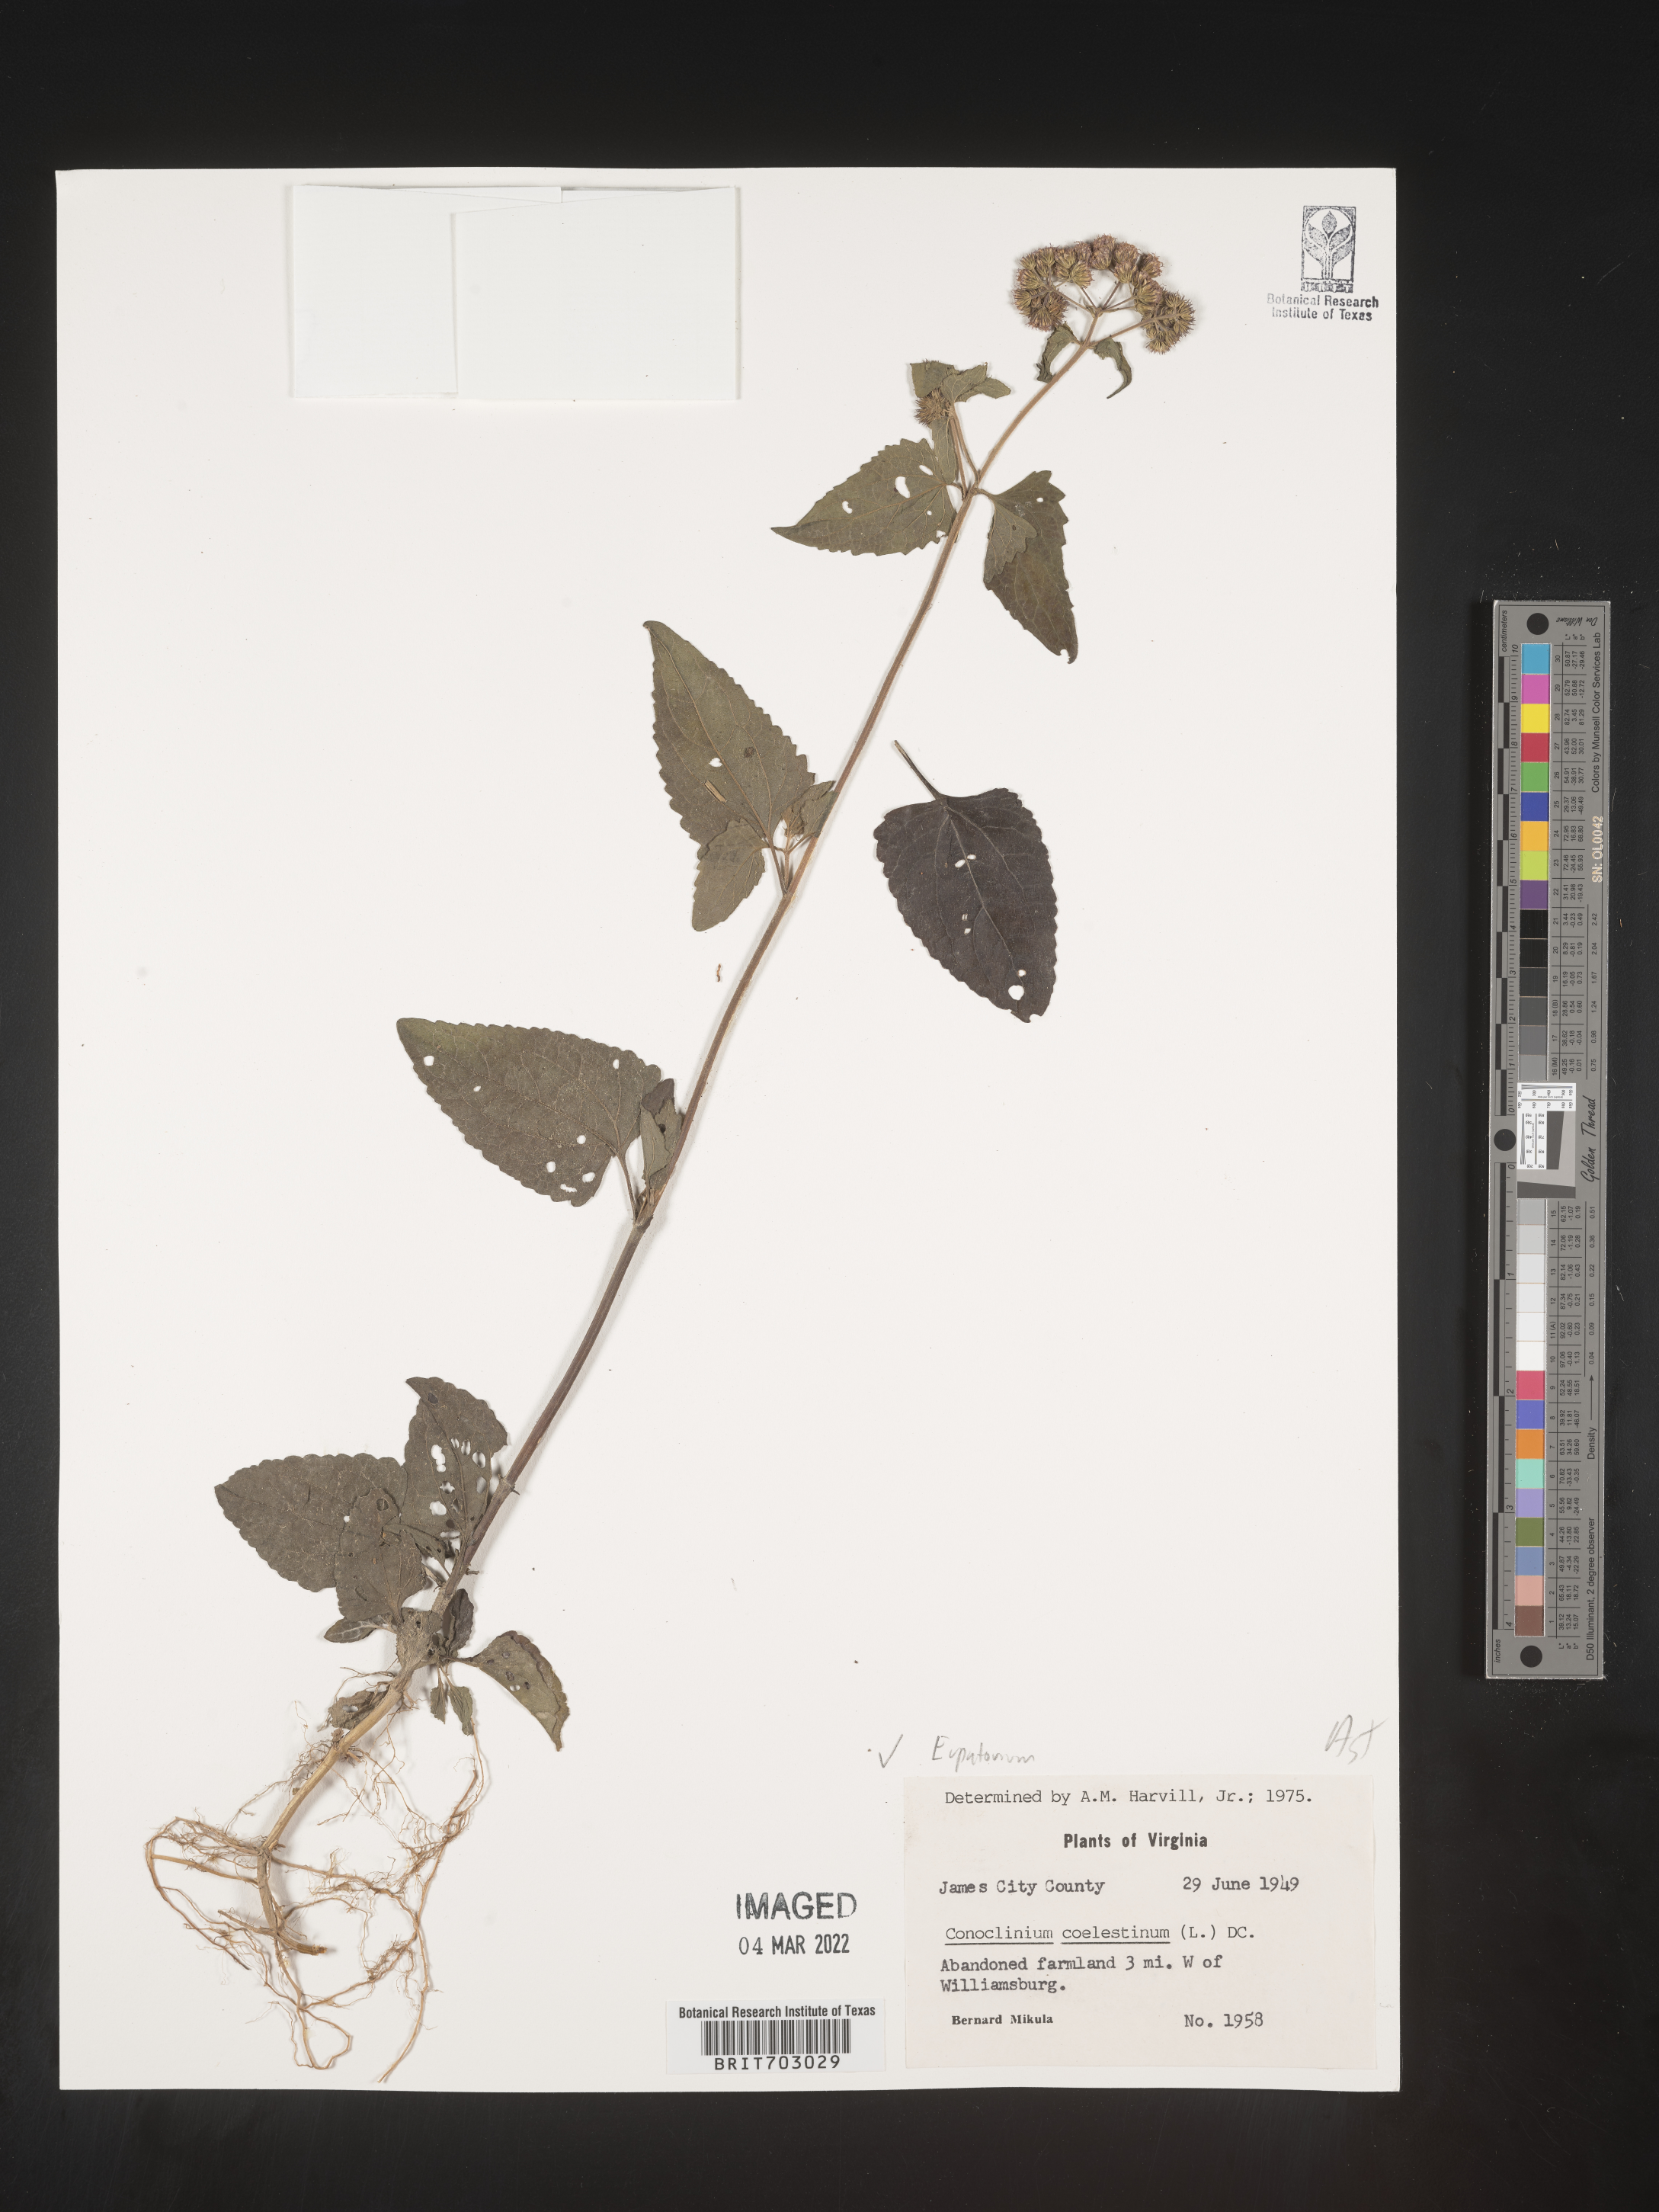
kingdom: Plantae
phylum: Tracheophyta
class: Magnoliopsida
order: Asterales
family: Asteraceae
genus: Eupatorium
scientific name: Eupatorium
